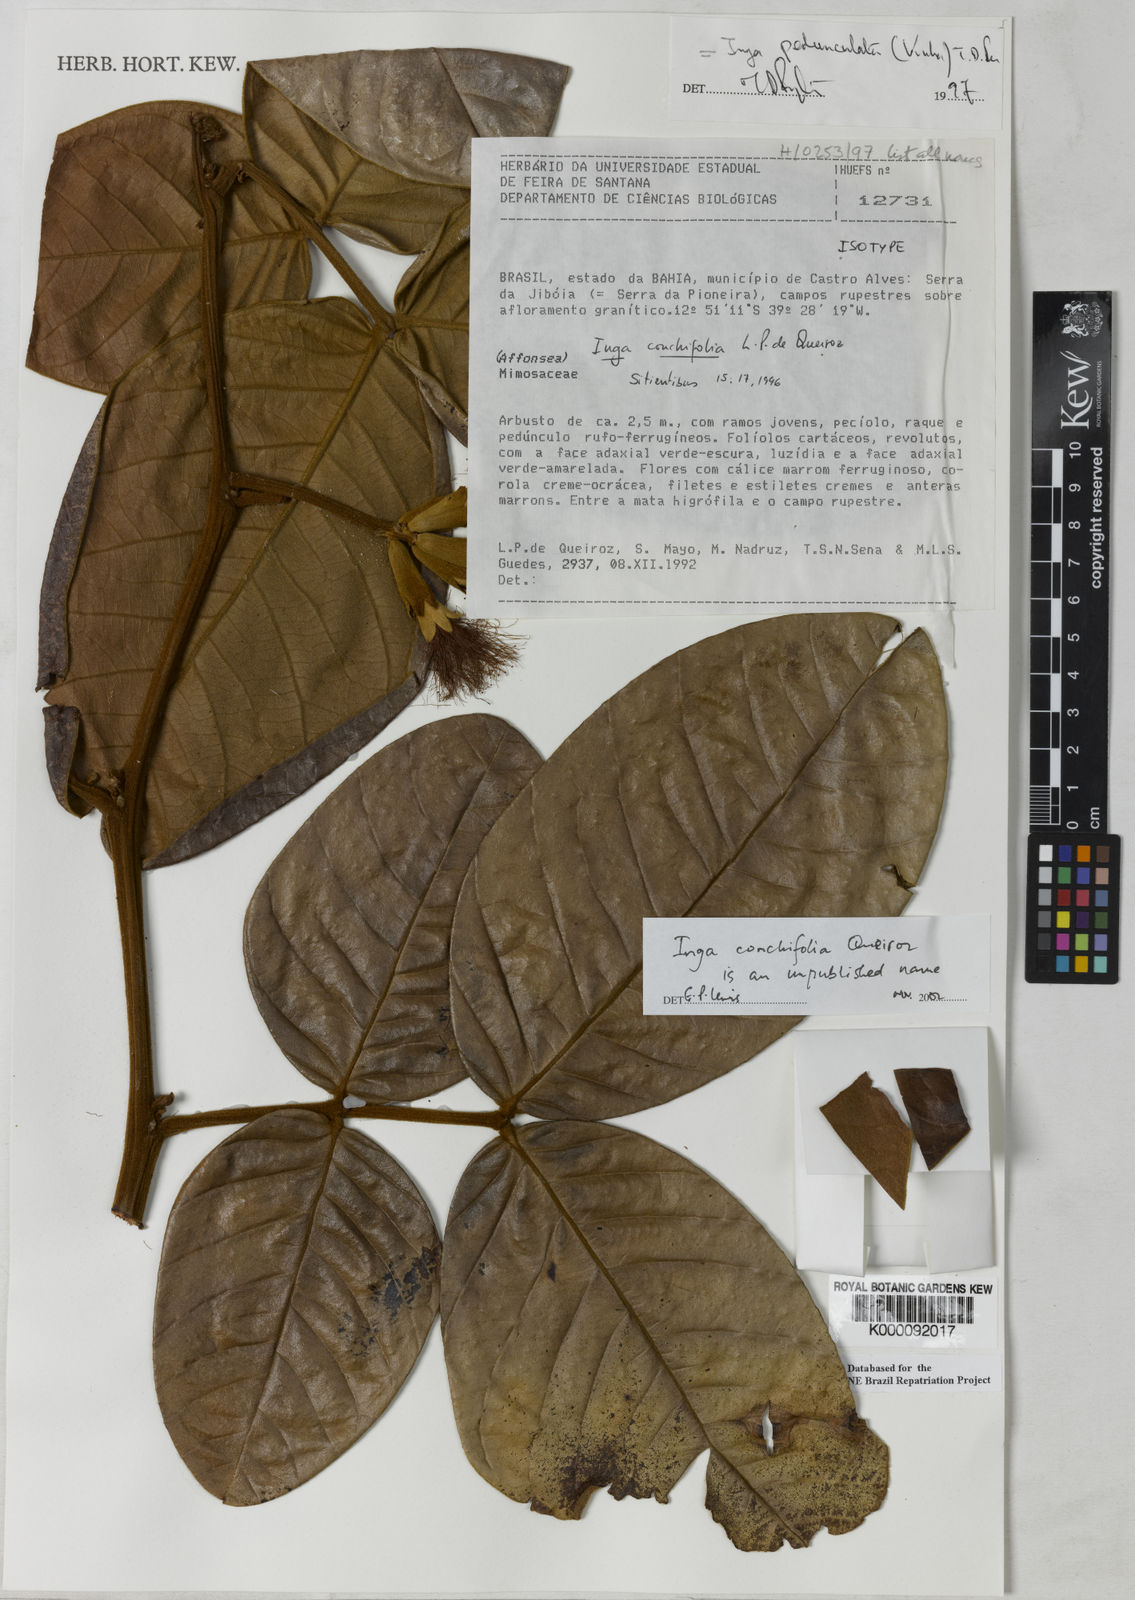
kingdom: Plantae
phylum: Tracheophyta
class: Magnoliopsida
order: Fabales
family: Fabaceae
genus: Inga
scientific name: Inga pedunculata
